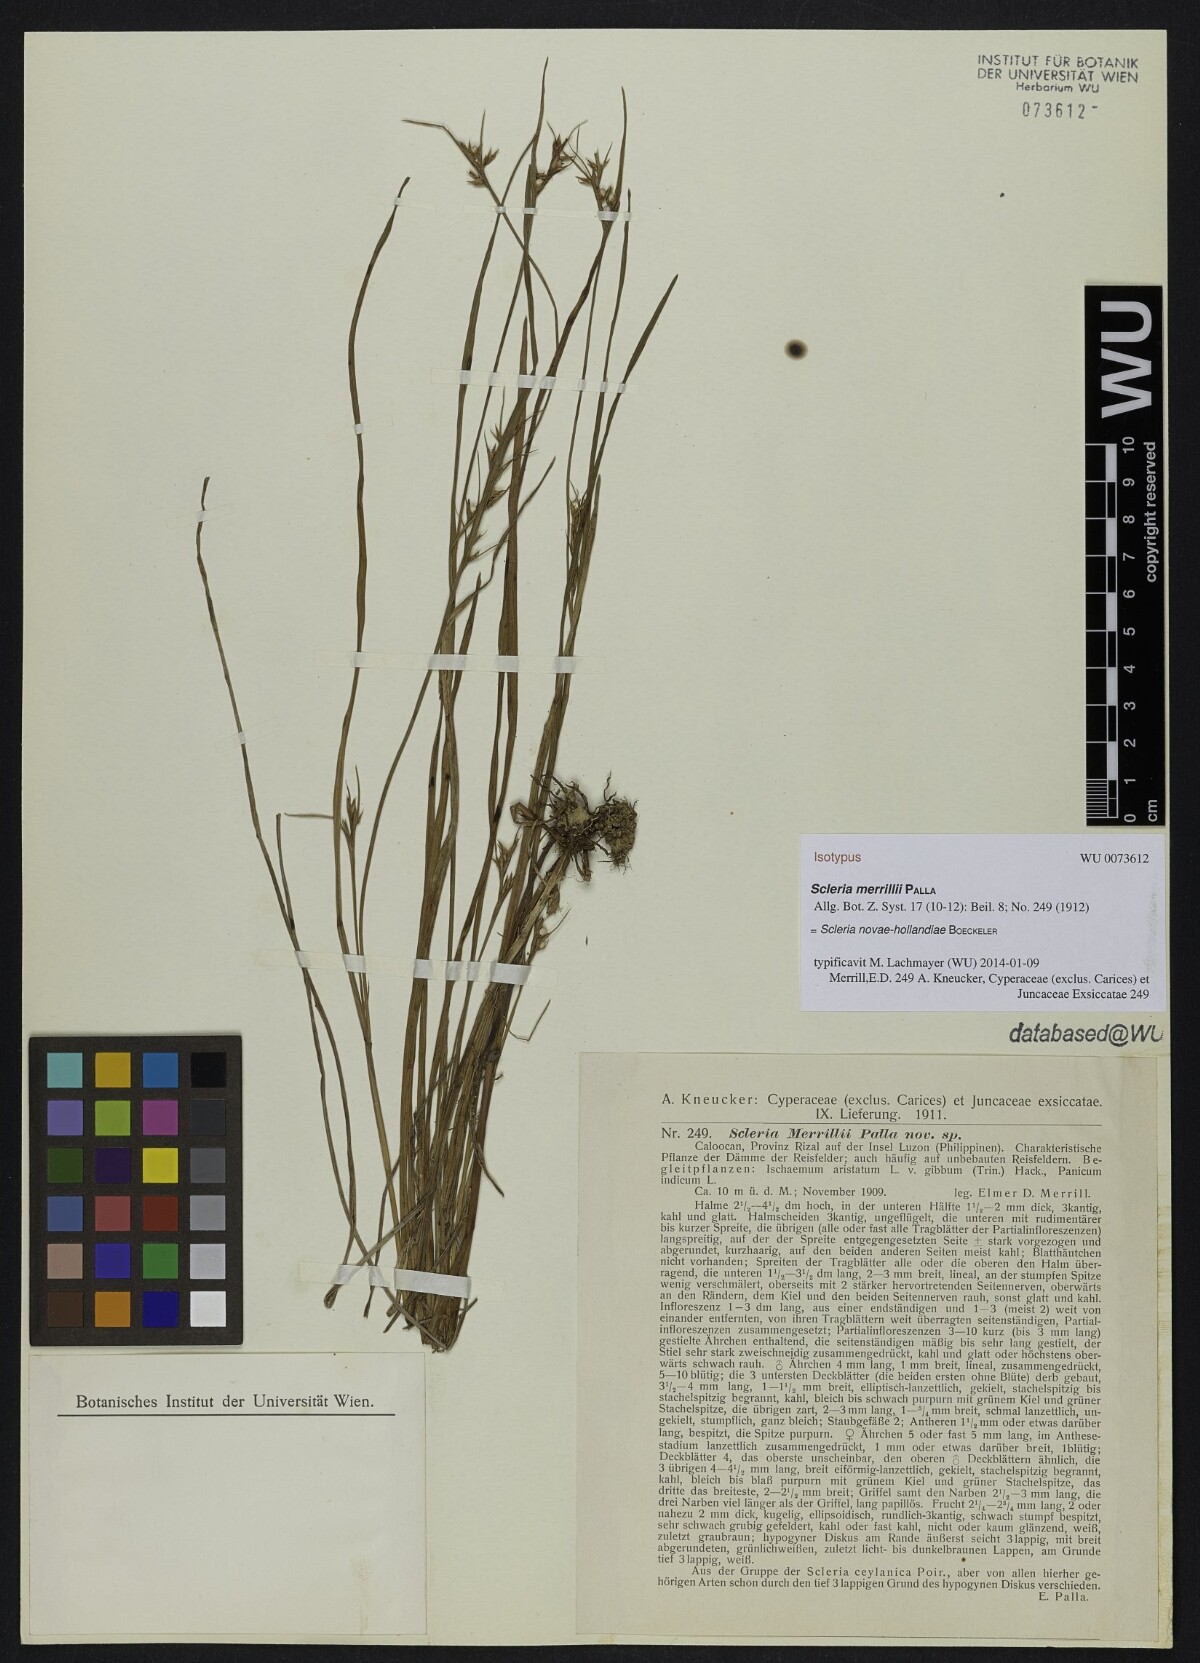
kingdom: Plantae
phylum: Tracheophyta
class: Liliopsida
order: Poales
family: Cyperaceae
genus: Scleria
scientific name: Scleria novae-hollandiae
